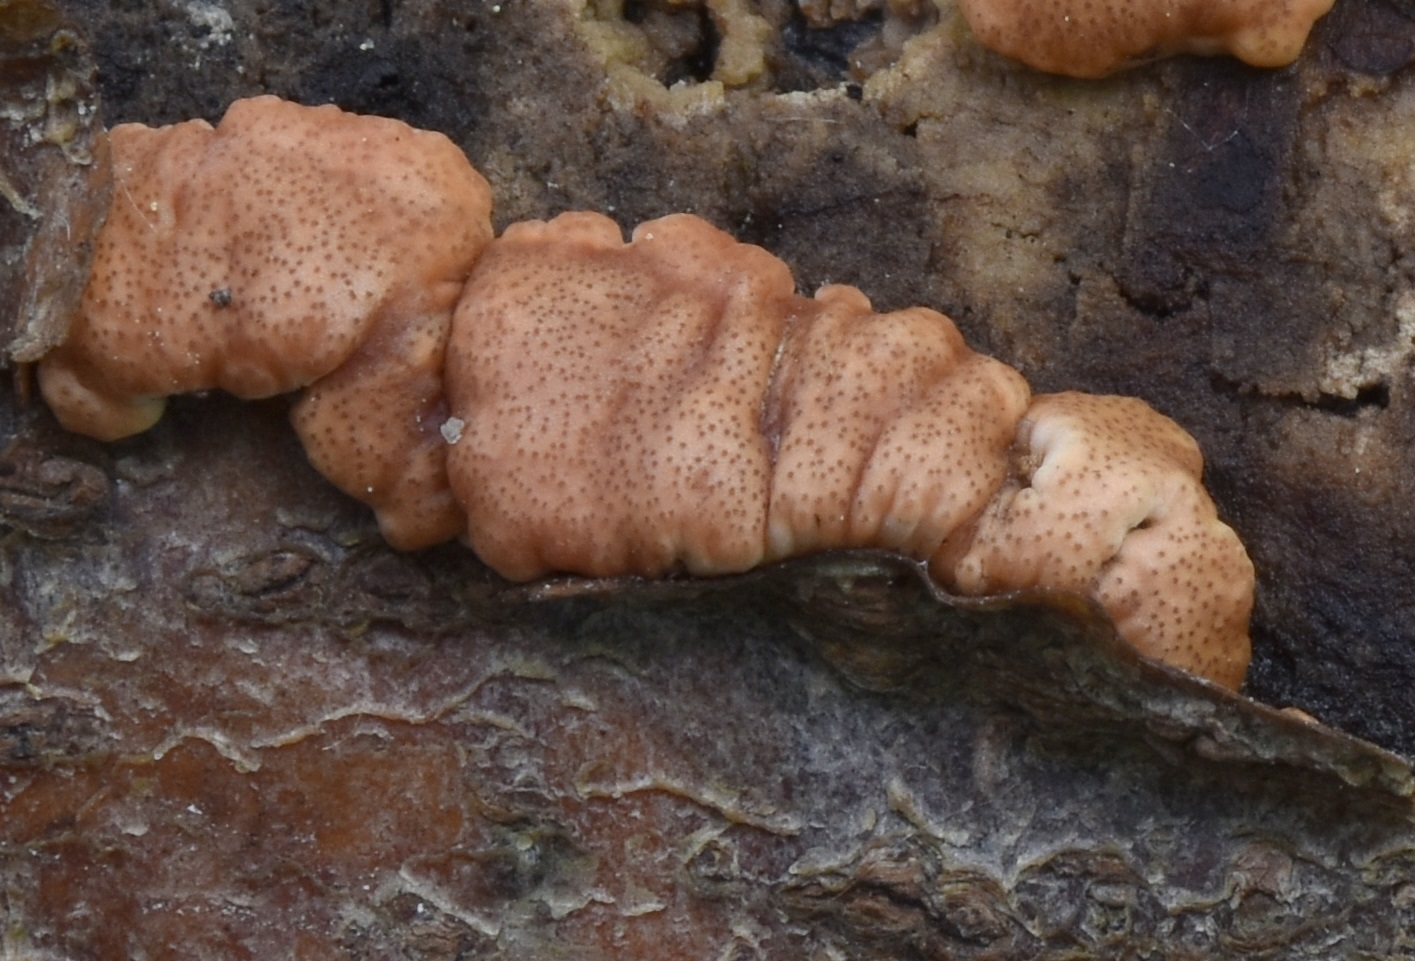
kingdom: Fungi
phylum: Ascomycota
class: Sordariomycetes
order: Hypocreales
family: Hypocreaceae
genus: Trichoderma
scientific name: Trichoderma europaeum
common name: rosabrun kødkerne
